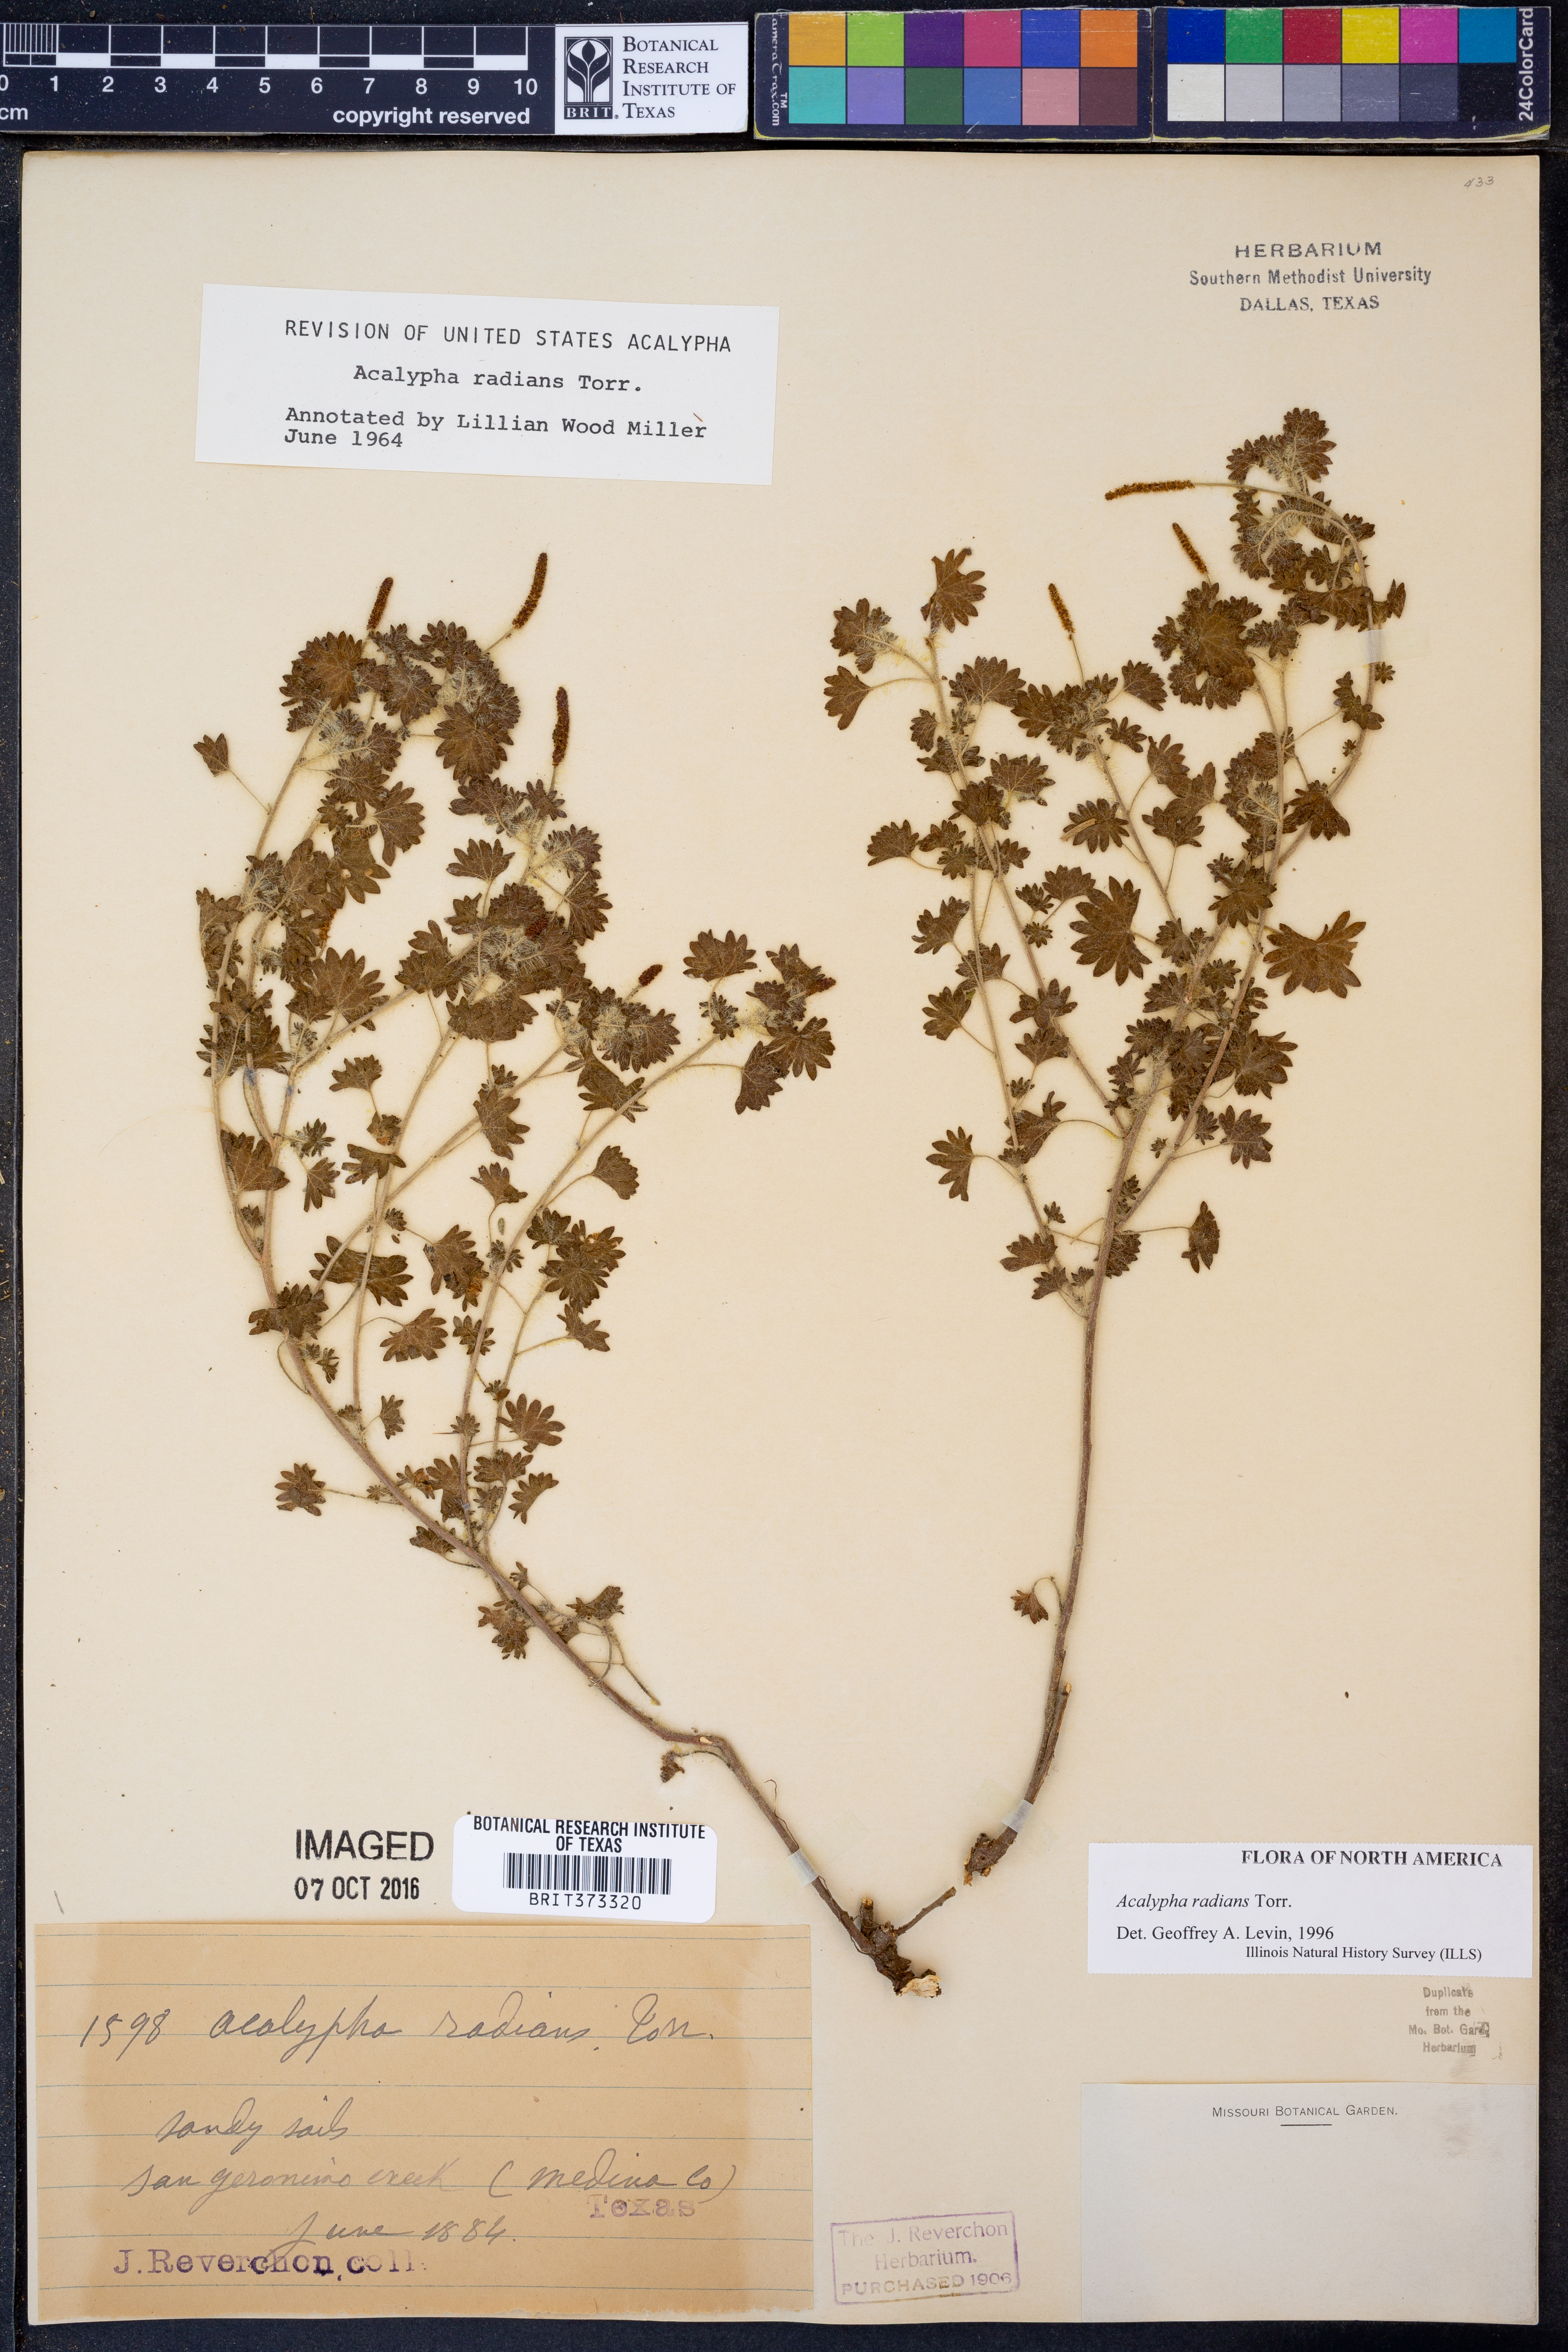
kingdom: Plantae
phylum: Tracheophyta
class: Magnoliopsida
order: Malpighiales
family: Euphorbiaceae
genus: Acalypha
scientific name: Acalypha radians
